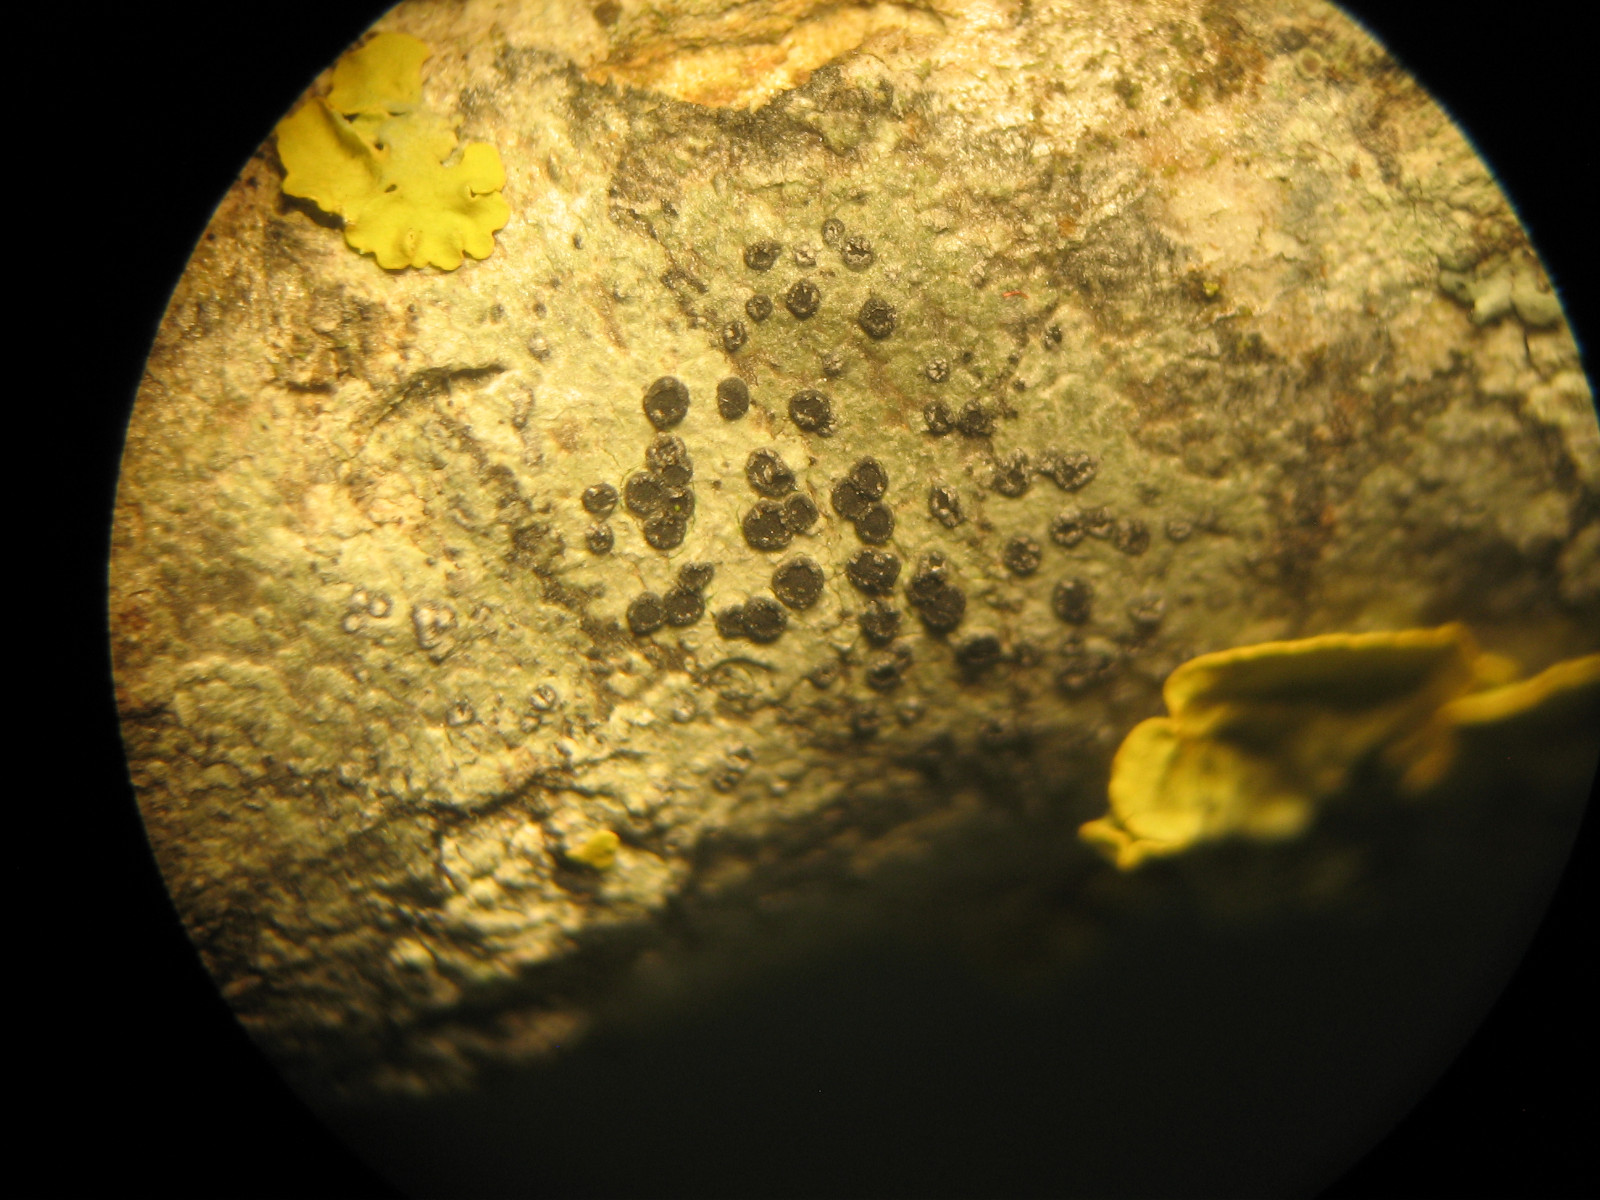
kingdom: Fungi
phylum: Ascomycota
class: Lecanoromycetes
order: Caliciales
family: Caliciaceae
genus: Diplotomma
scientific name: Diplotomma pharcidium
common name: skov-sortskivelav
